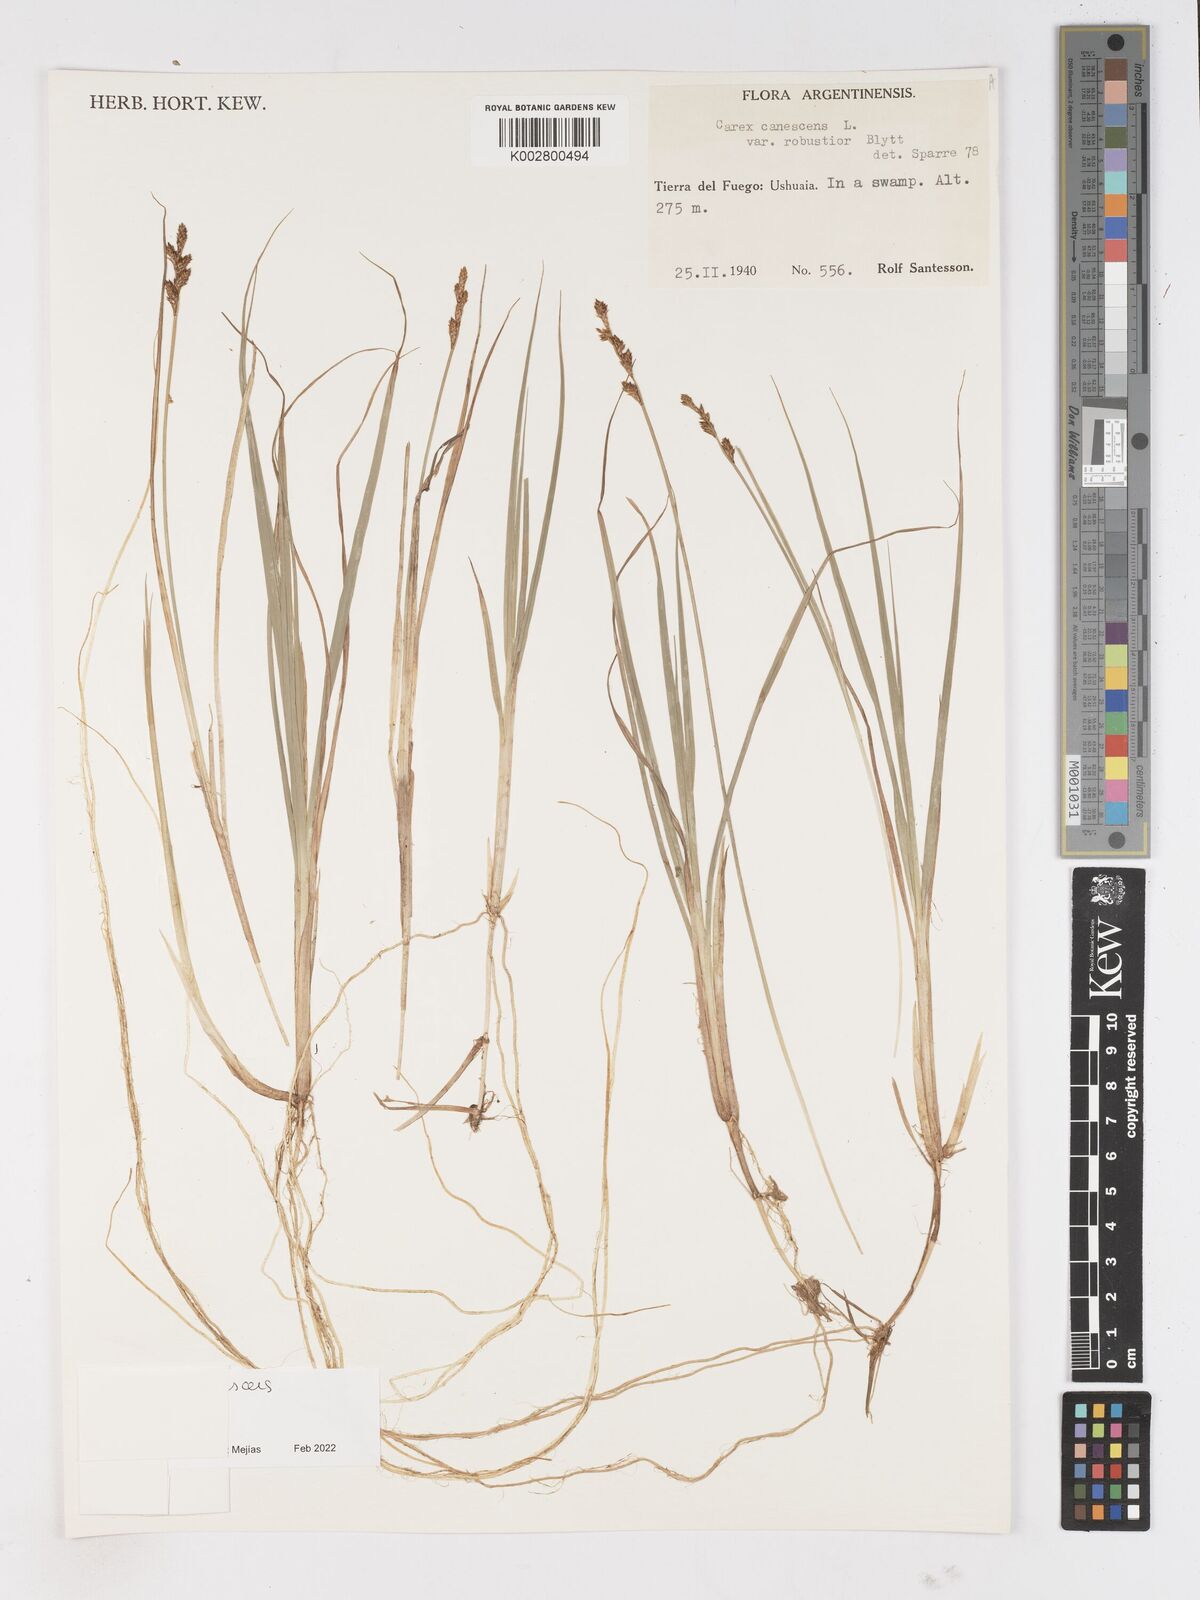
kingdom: Plantae
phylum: Tracheophyta
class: Liliopsida
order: Poales
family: Cyperaceae
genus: Carex
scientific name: Carex canescens
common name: White sedge
